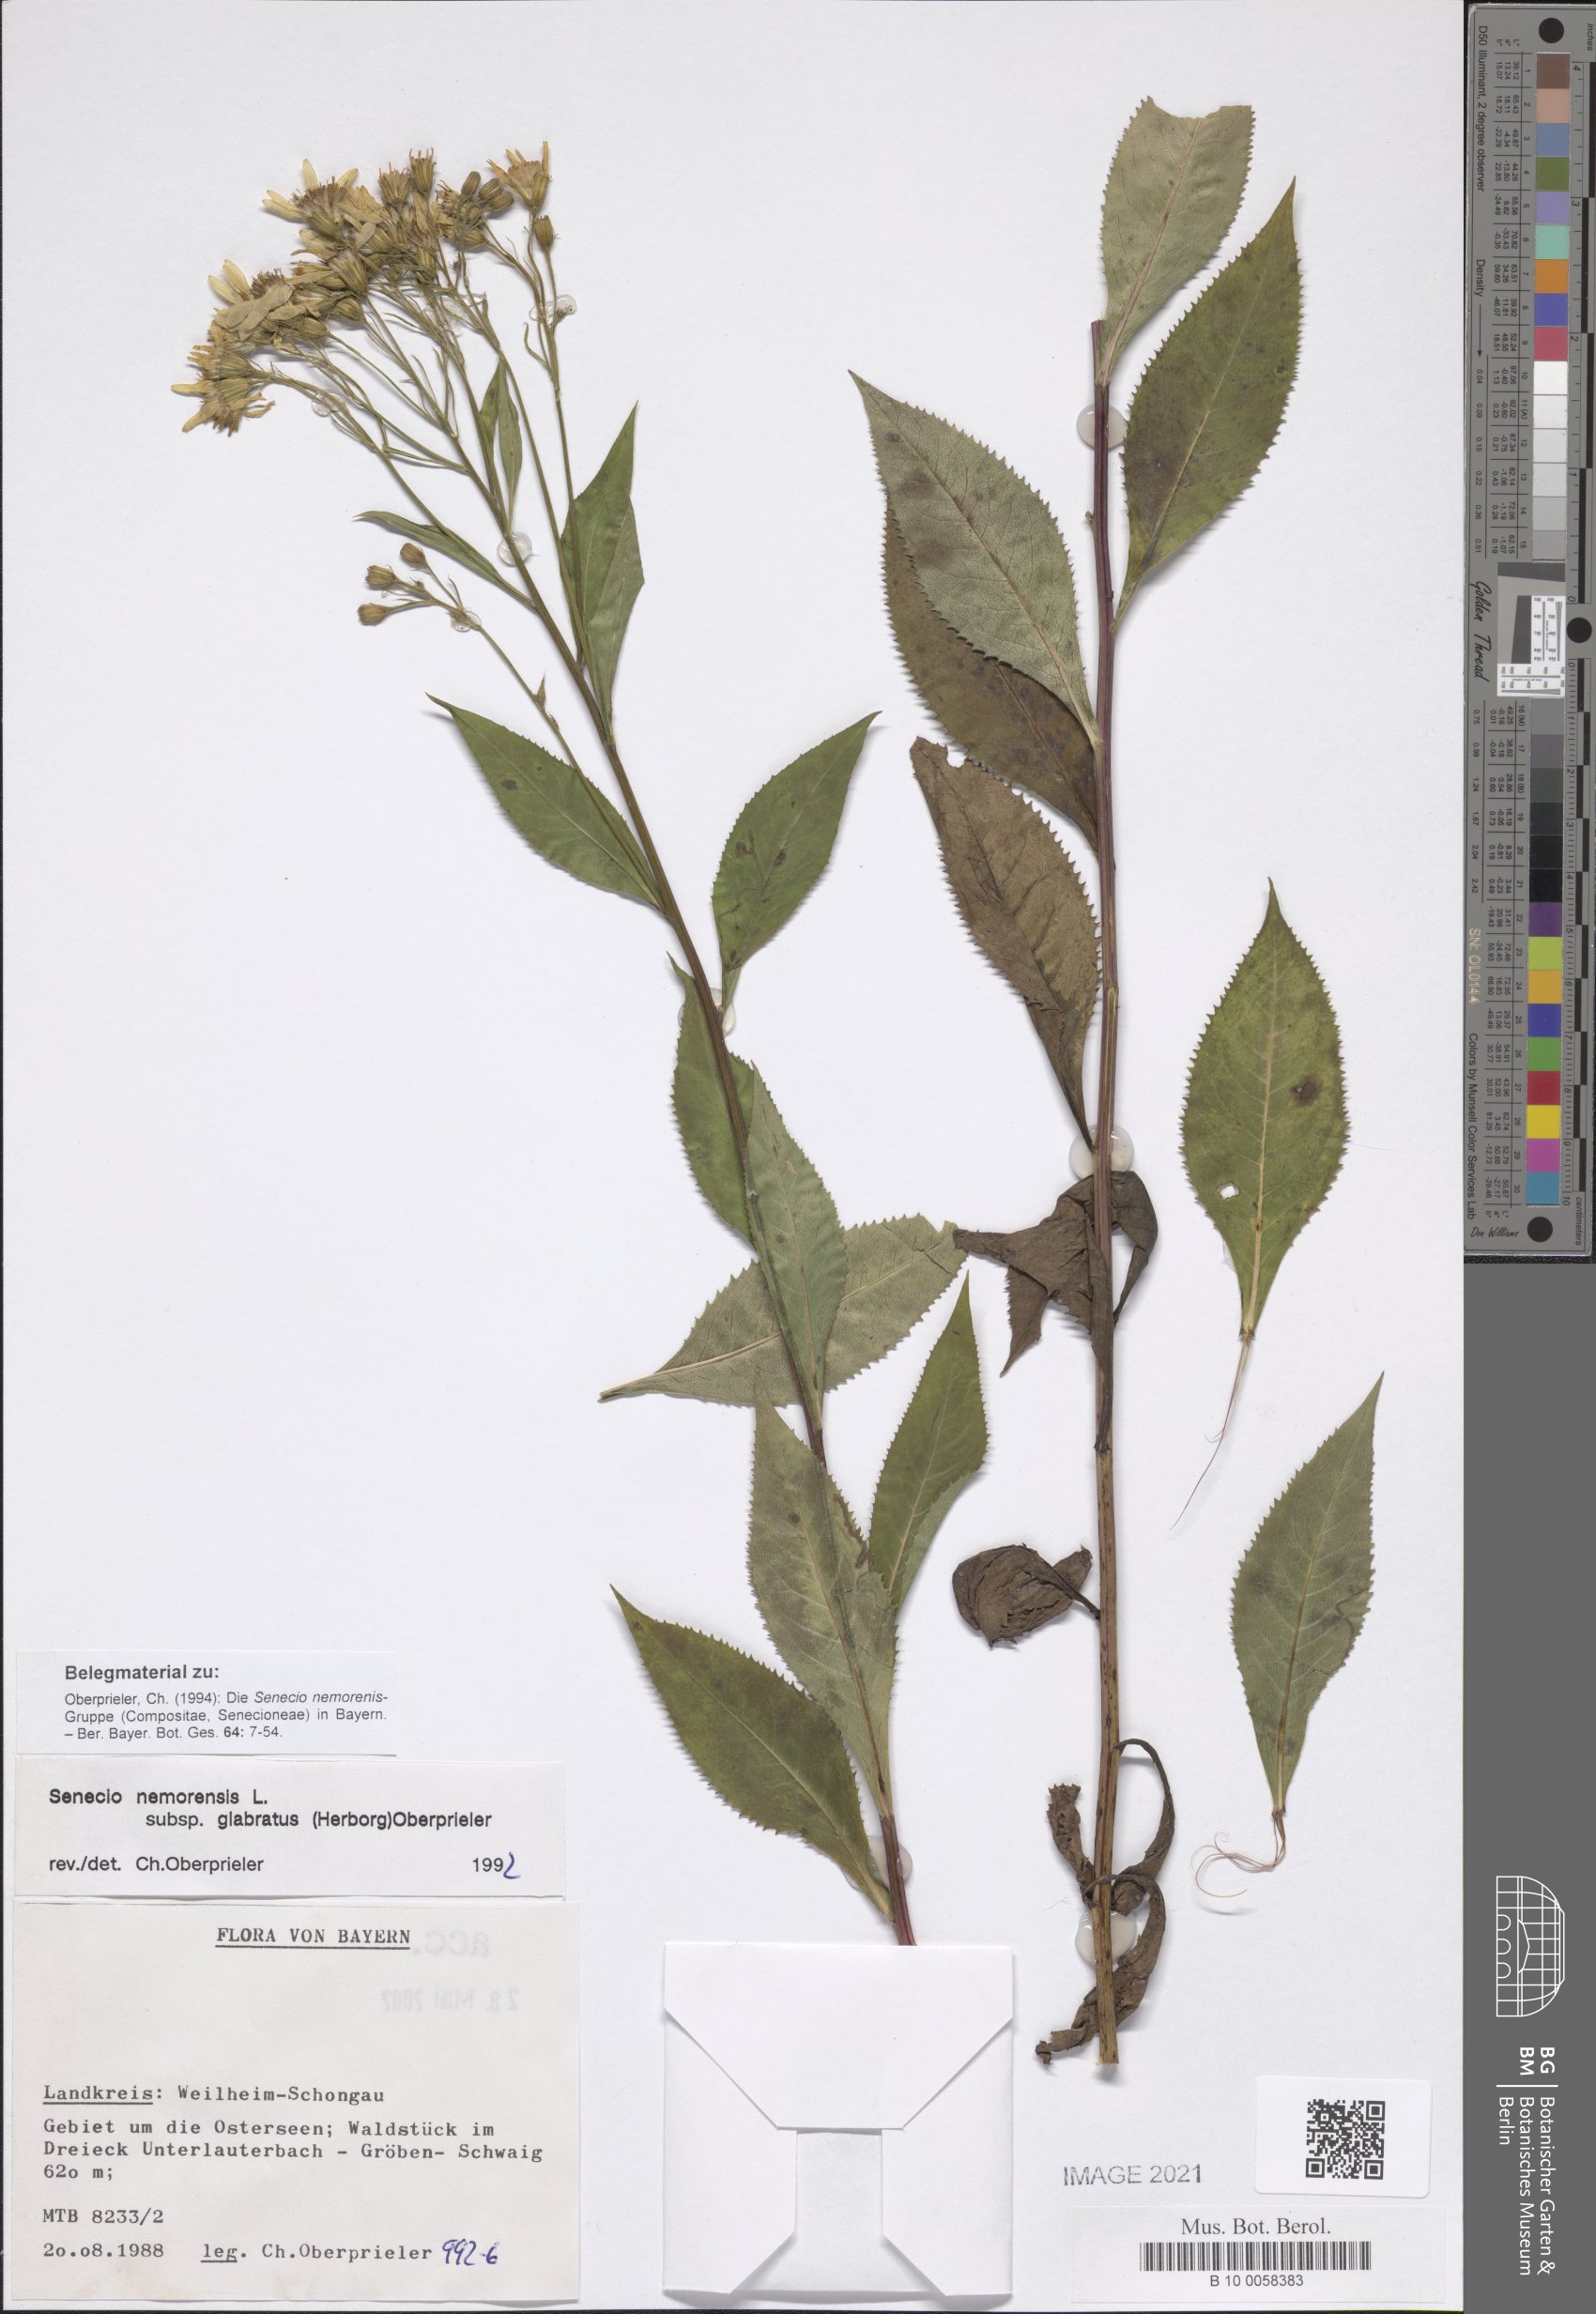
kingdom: Plantae
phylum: Tracheophyta
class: Magnoliopsida
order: Asterales
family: Asteraceae
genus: Senecio
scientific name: Senecio germanicus
